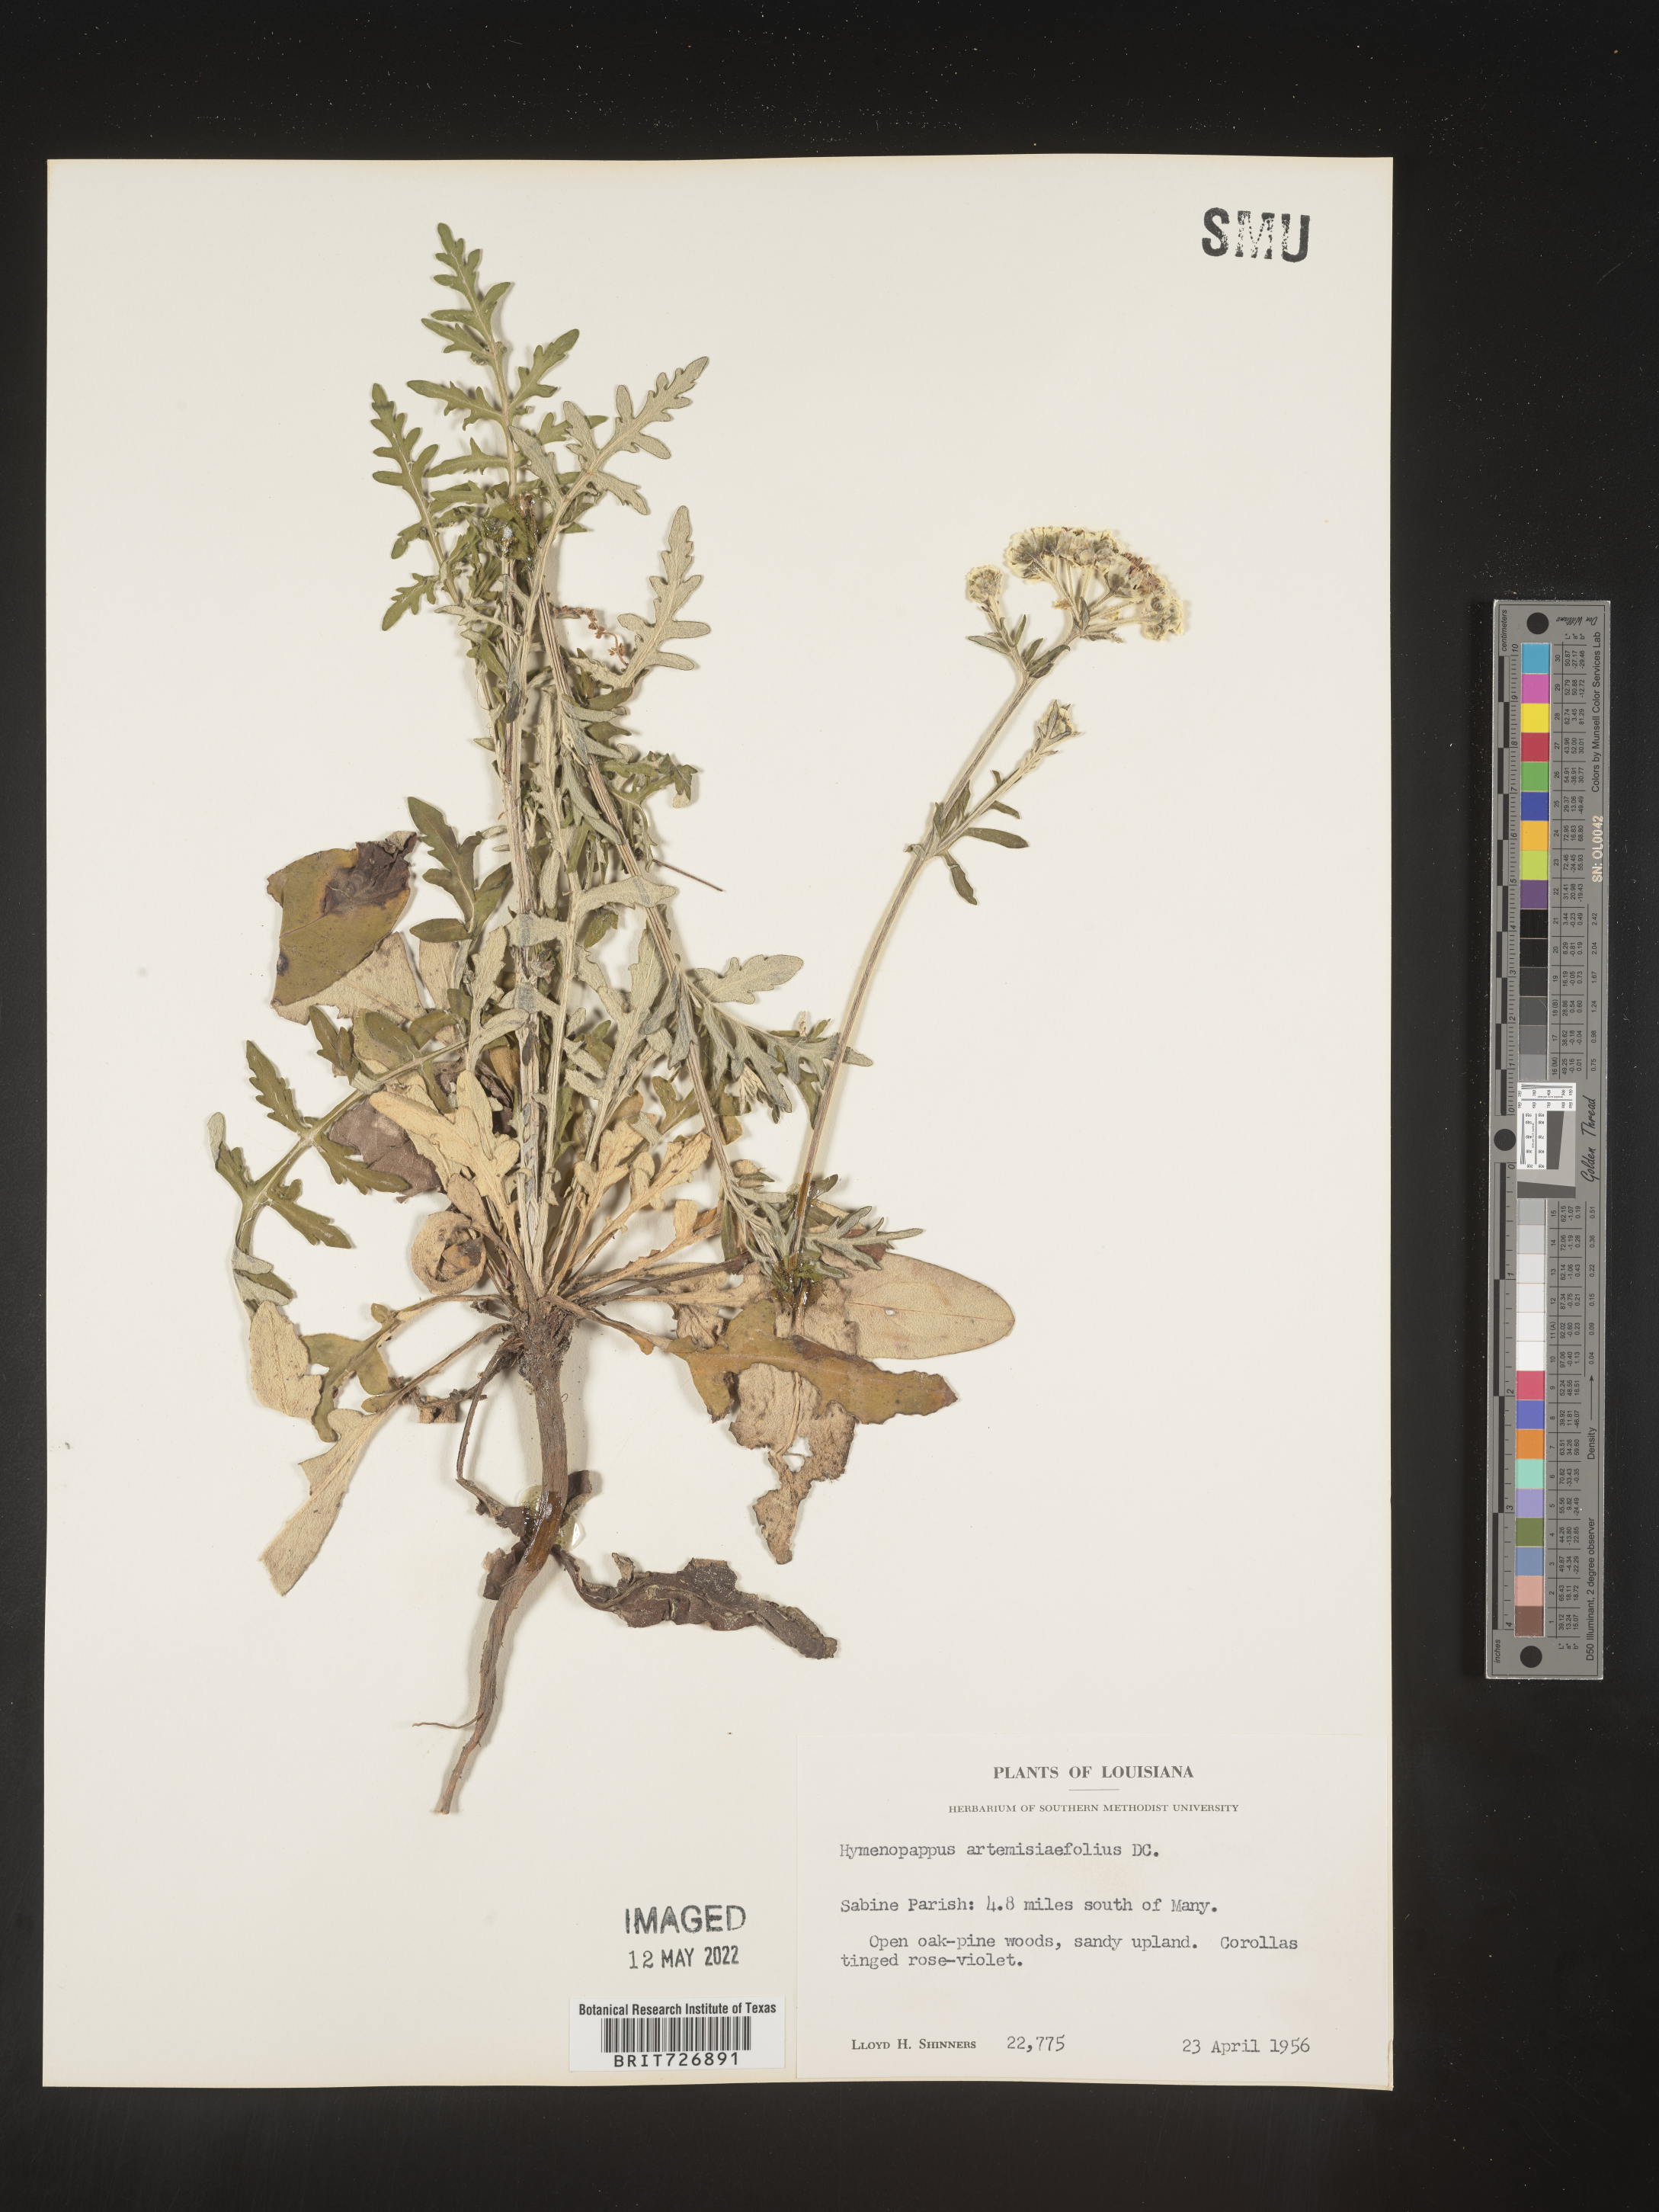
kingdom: Plantae
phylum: Tracheophyta
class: Magnoliopsida
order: Asterales
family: Asteraceae
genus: Hymenopappus
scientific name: Hymenopappus artemisiifolius
